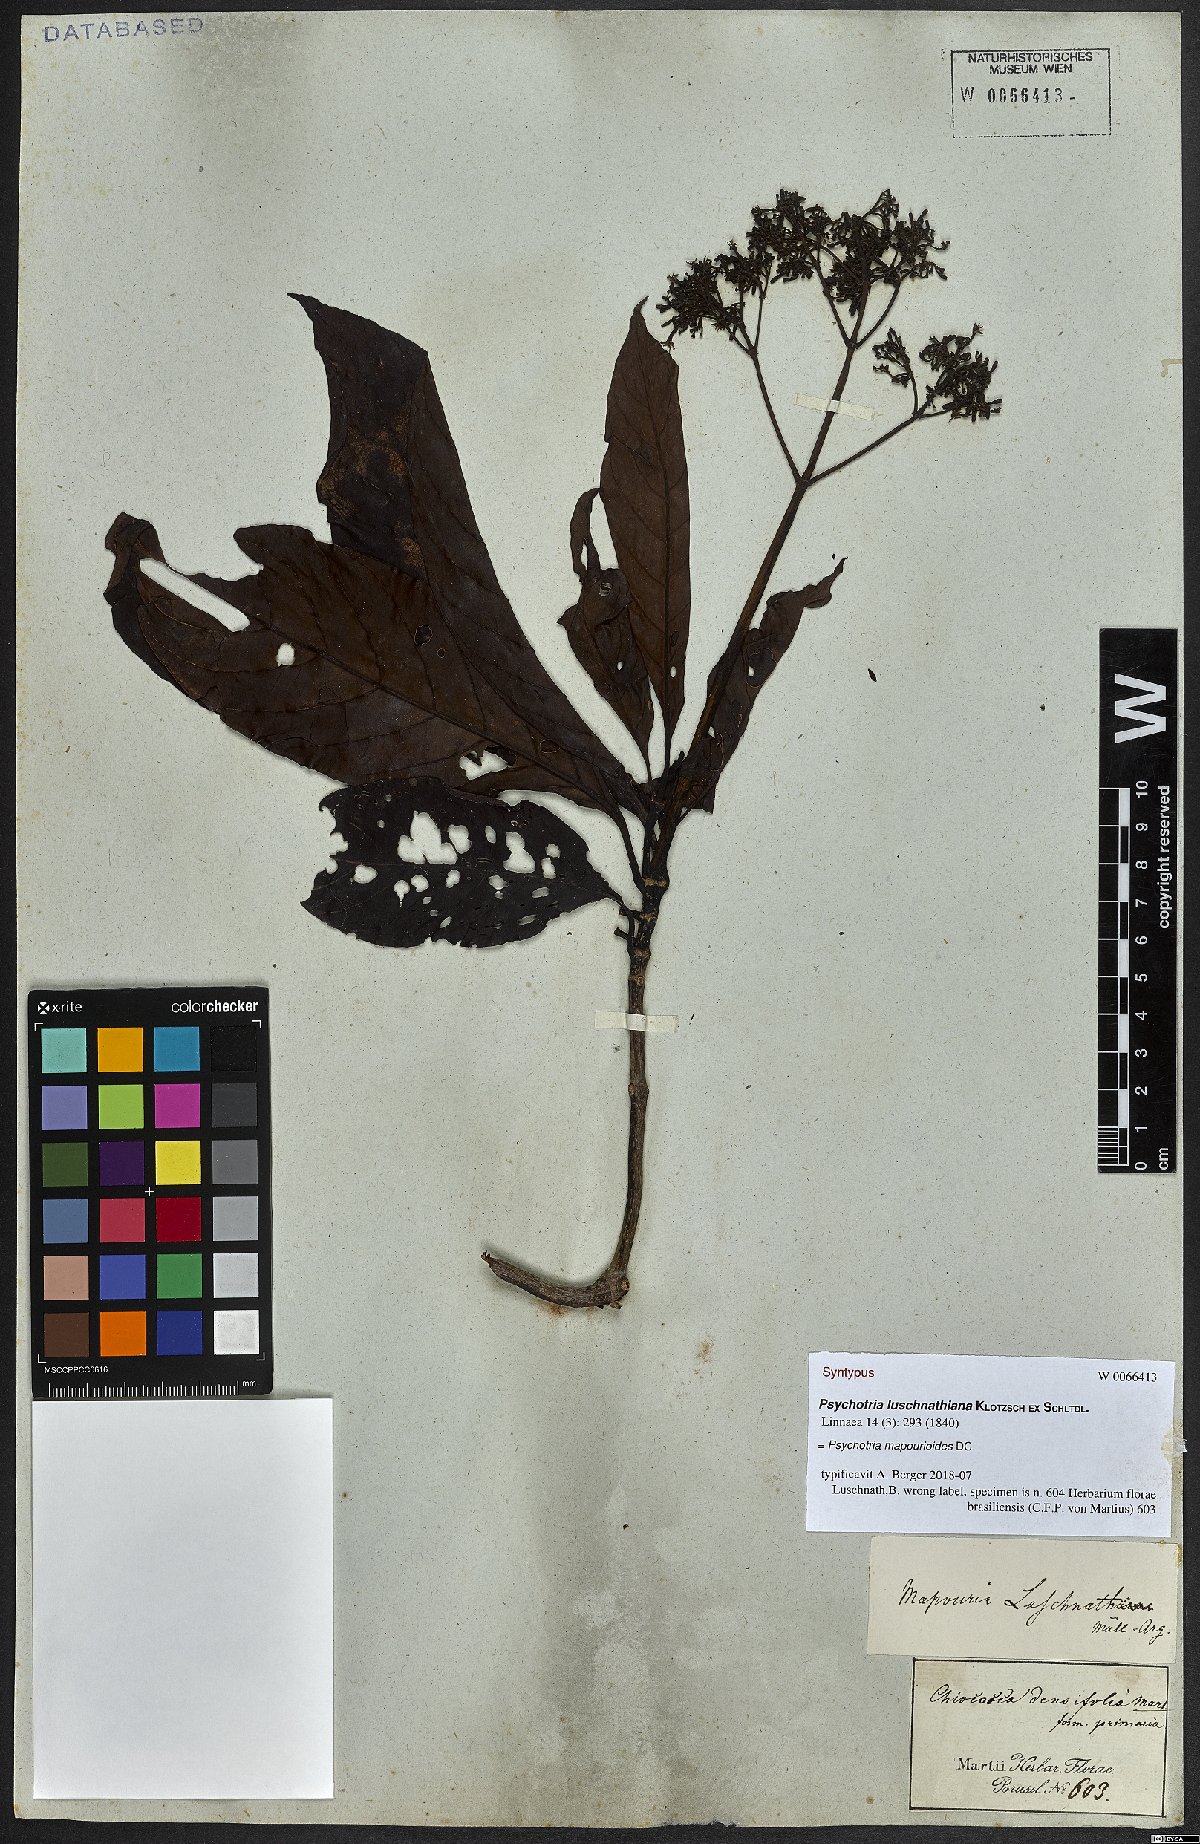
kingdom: Plantae
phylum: Tracheophyta
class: Magnoliopsida
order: Gentianales
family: Rubiaceae
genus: Psychotria
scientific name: Psychotria pedunculosa
